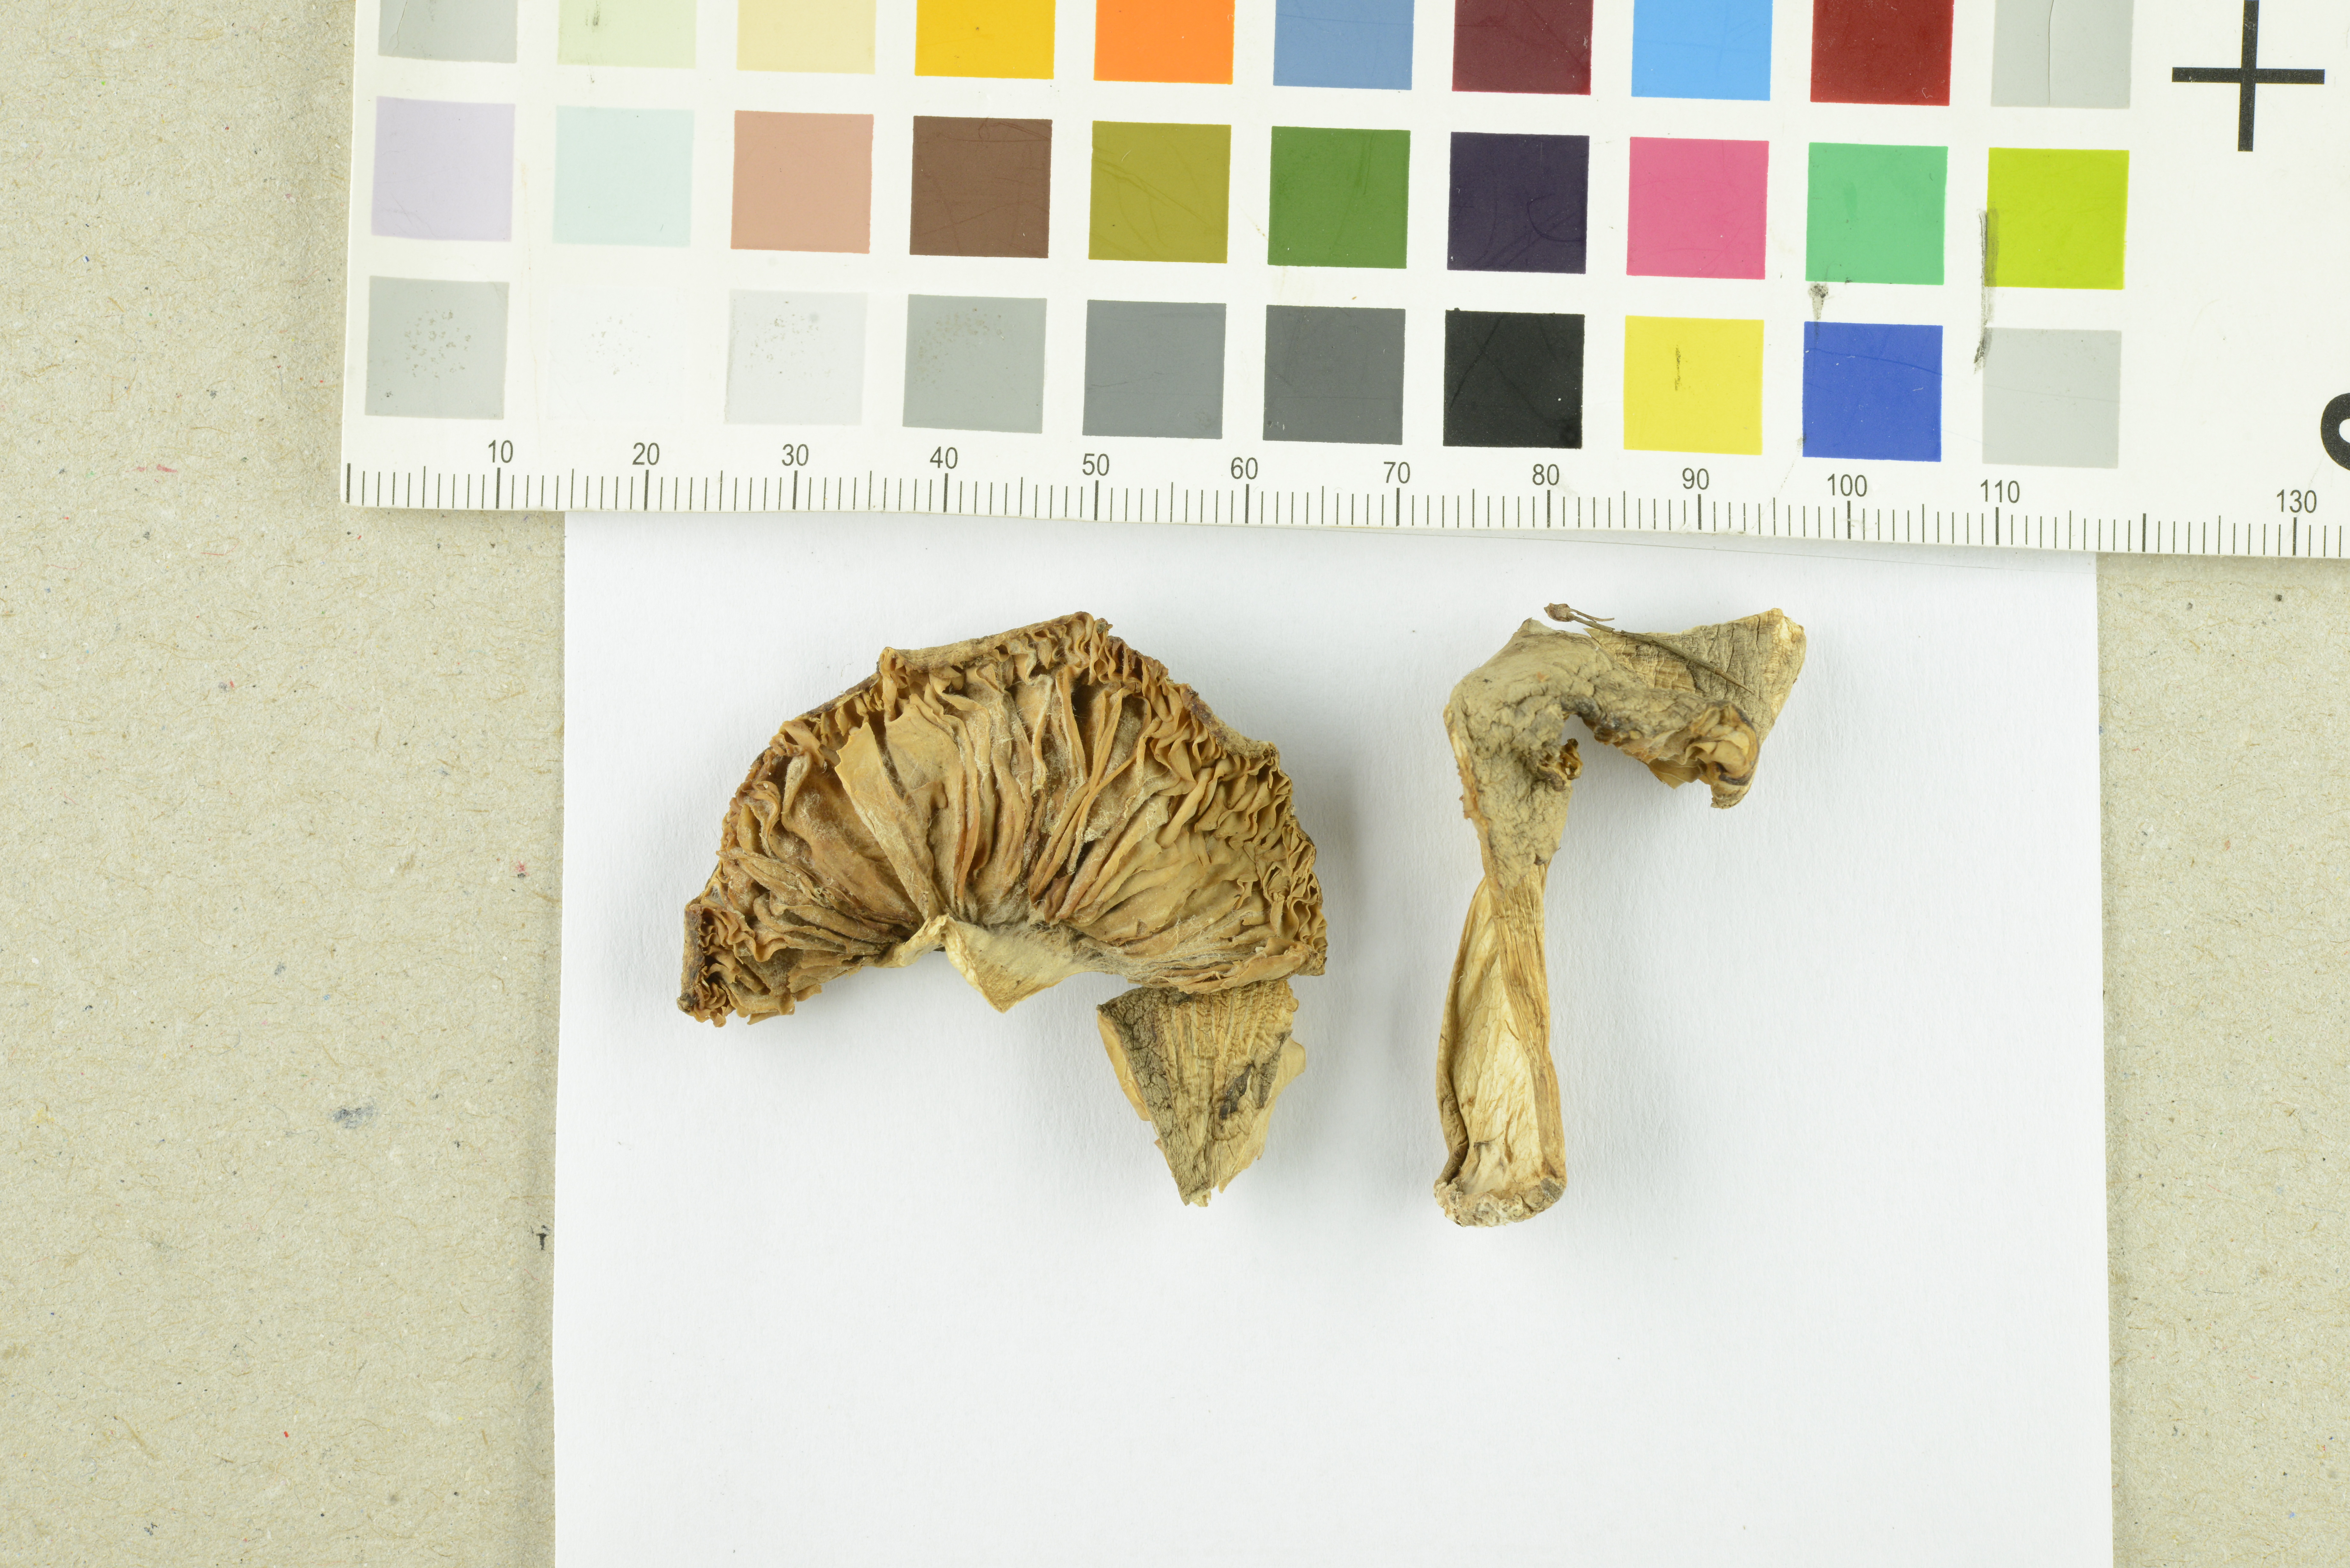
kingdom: Fungi
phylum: Basidiomycota
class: Agaricomycetes
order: Agaricales
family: Tricholomataceae
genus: Tricholoma
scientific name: Tricholoma filamentosum
